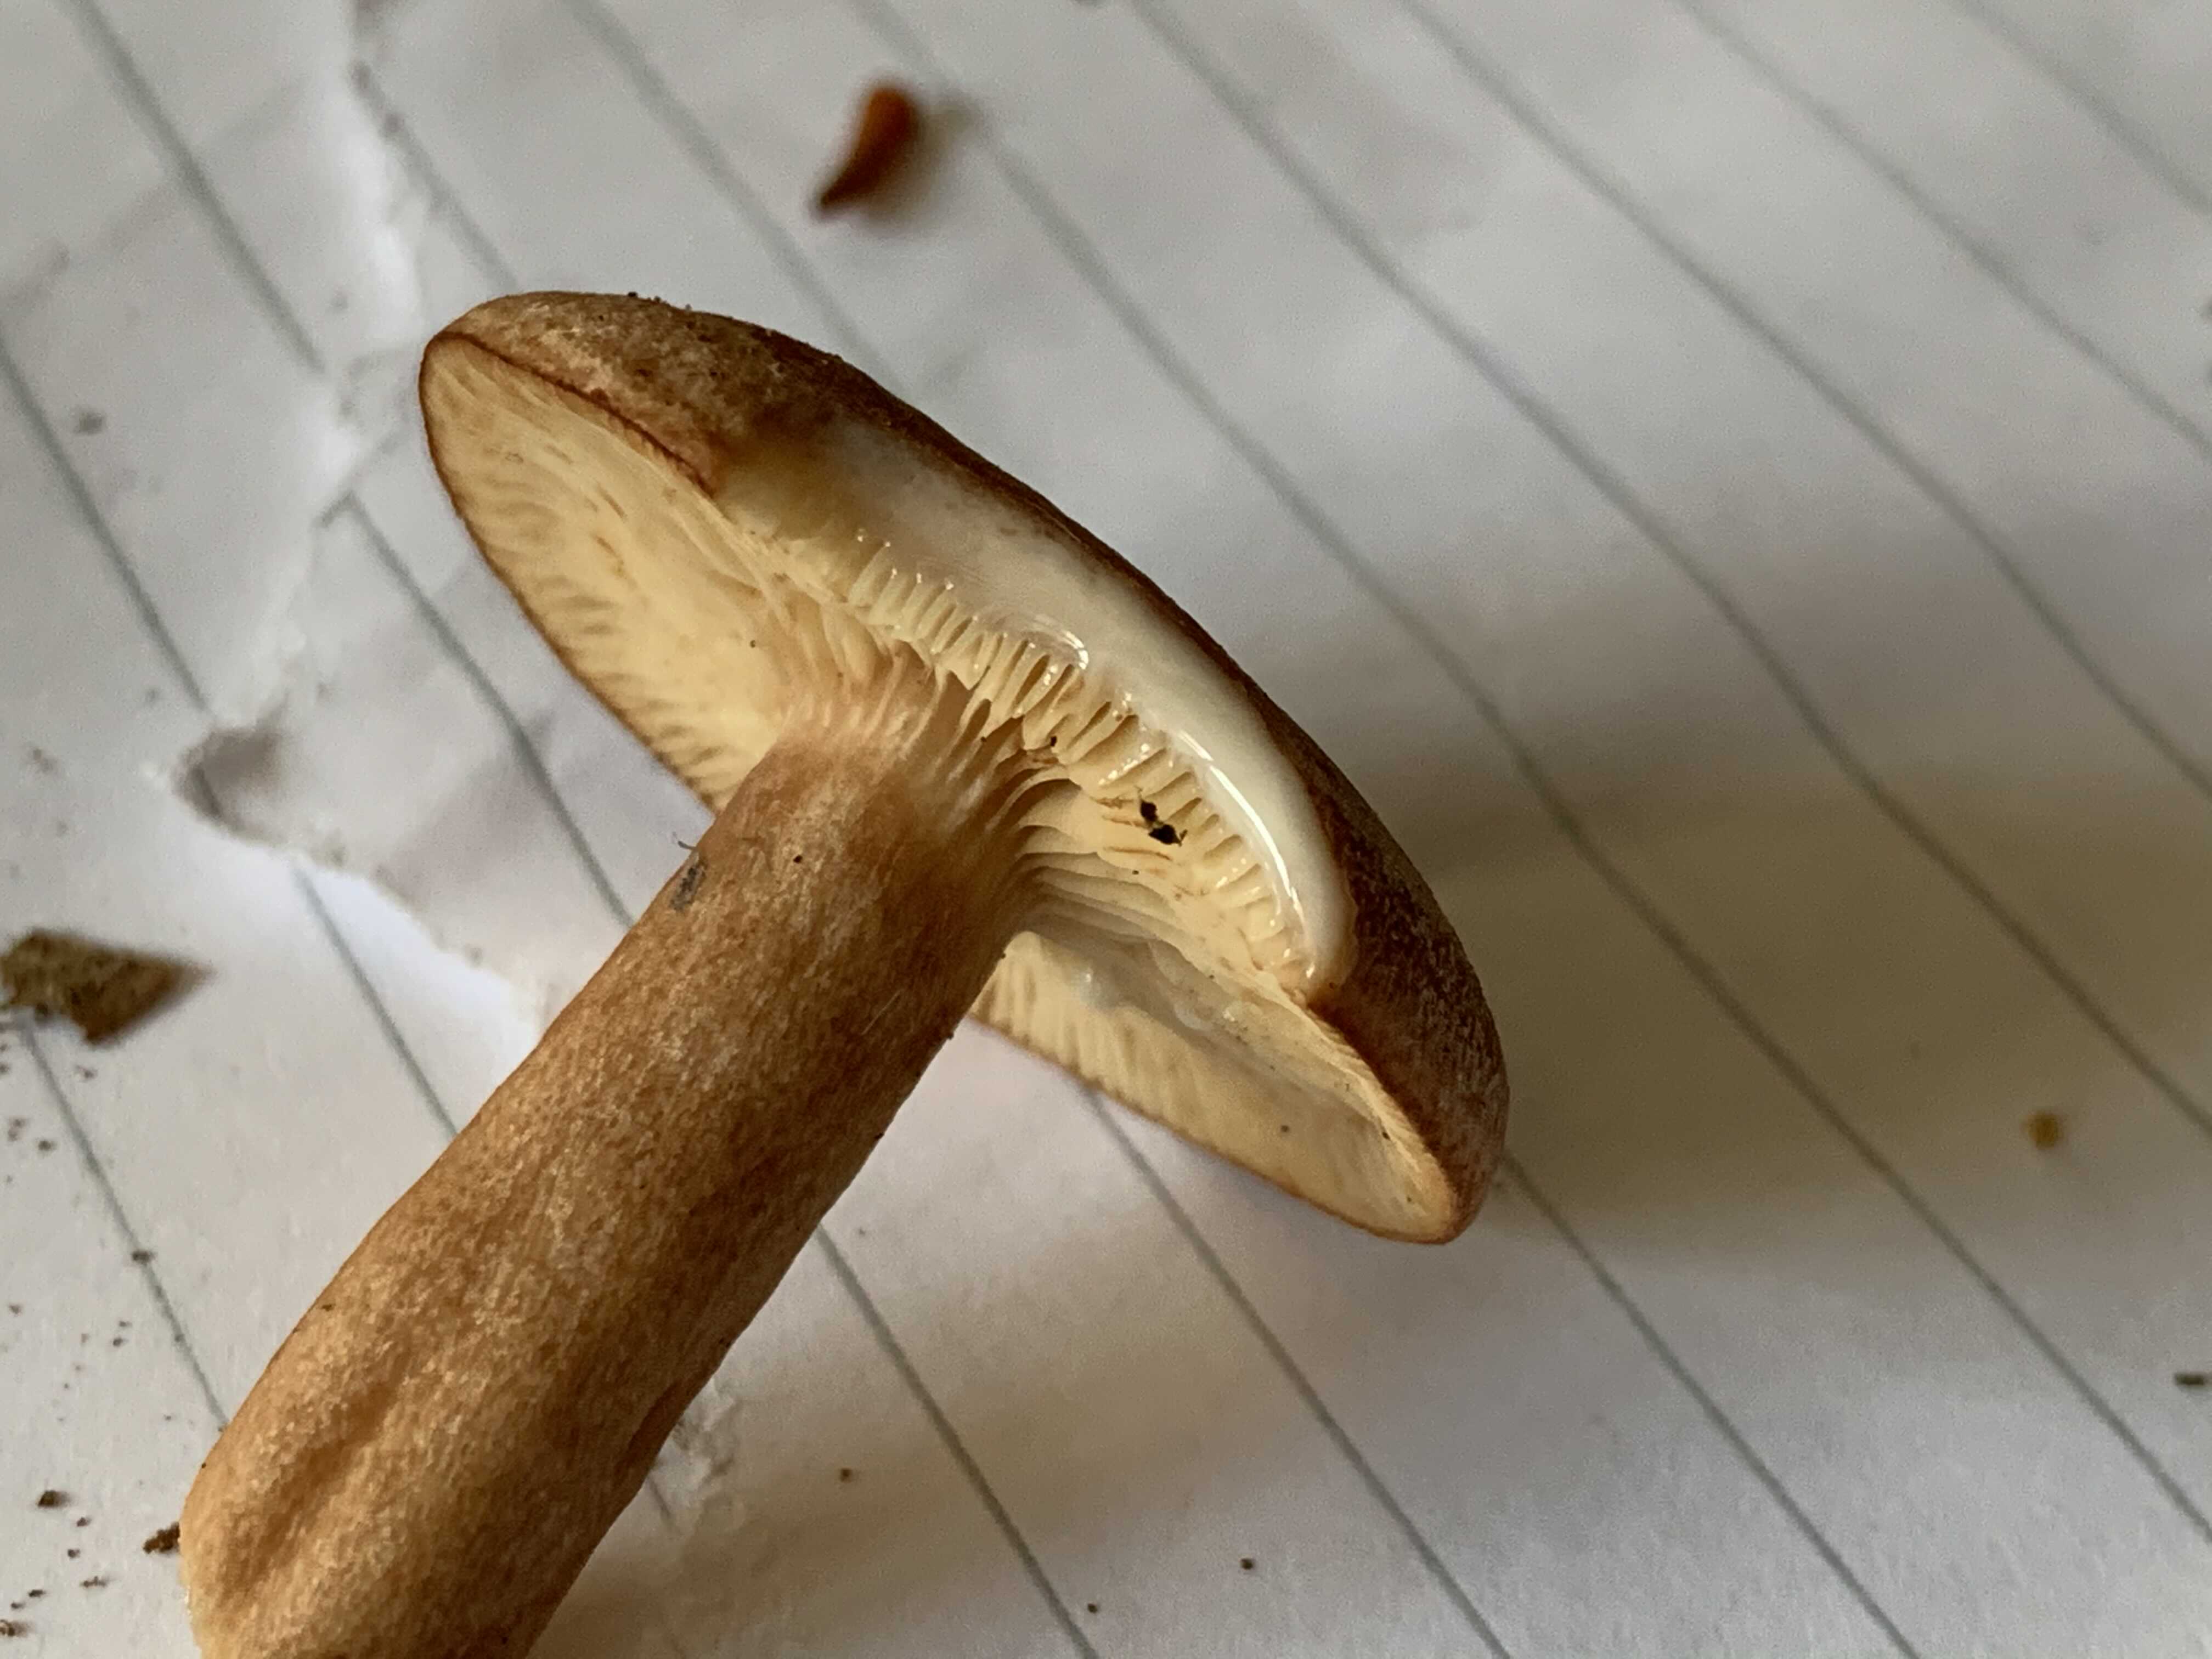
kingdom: Fungi
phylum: Basidiomycota
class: Agaricomycetes
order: Russulales
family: Russulaceae
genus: Lactarius
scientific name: Lactarius quietus
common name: ege-mælkehat
